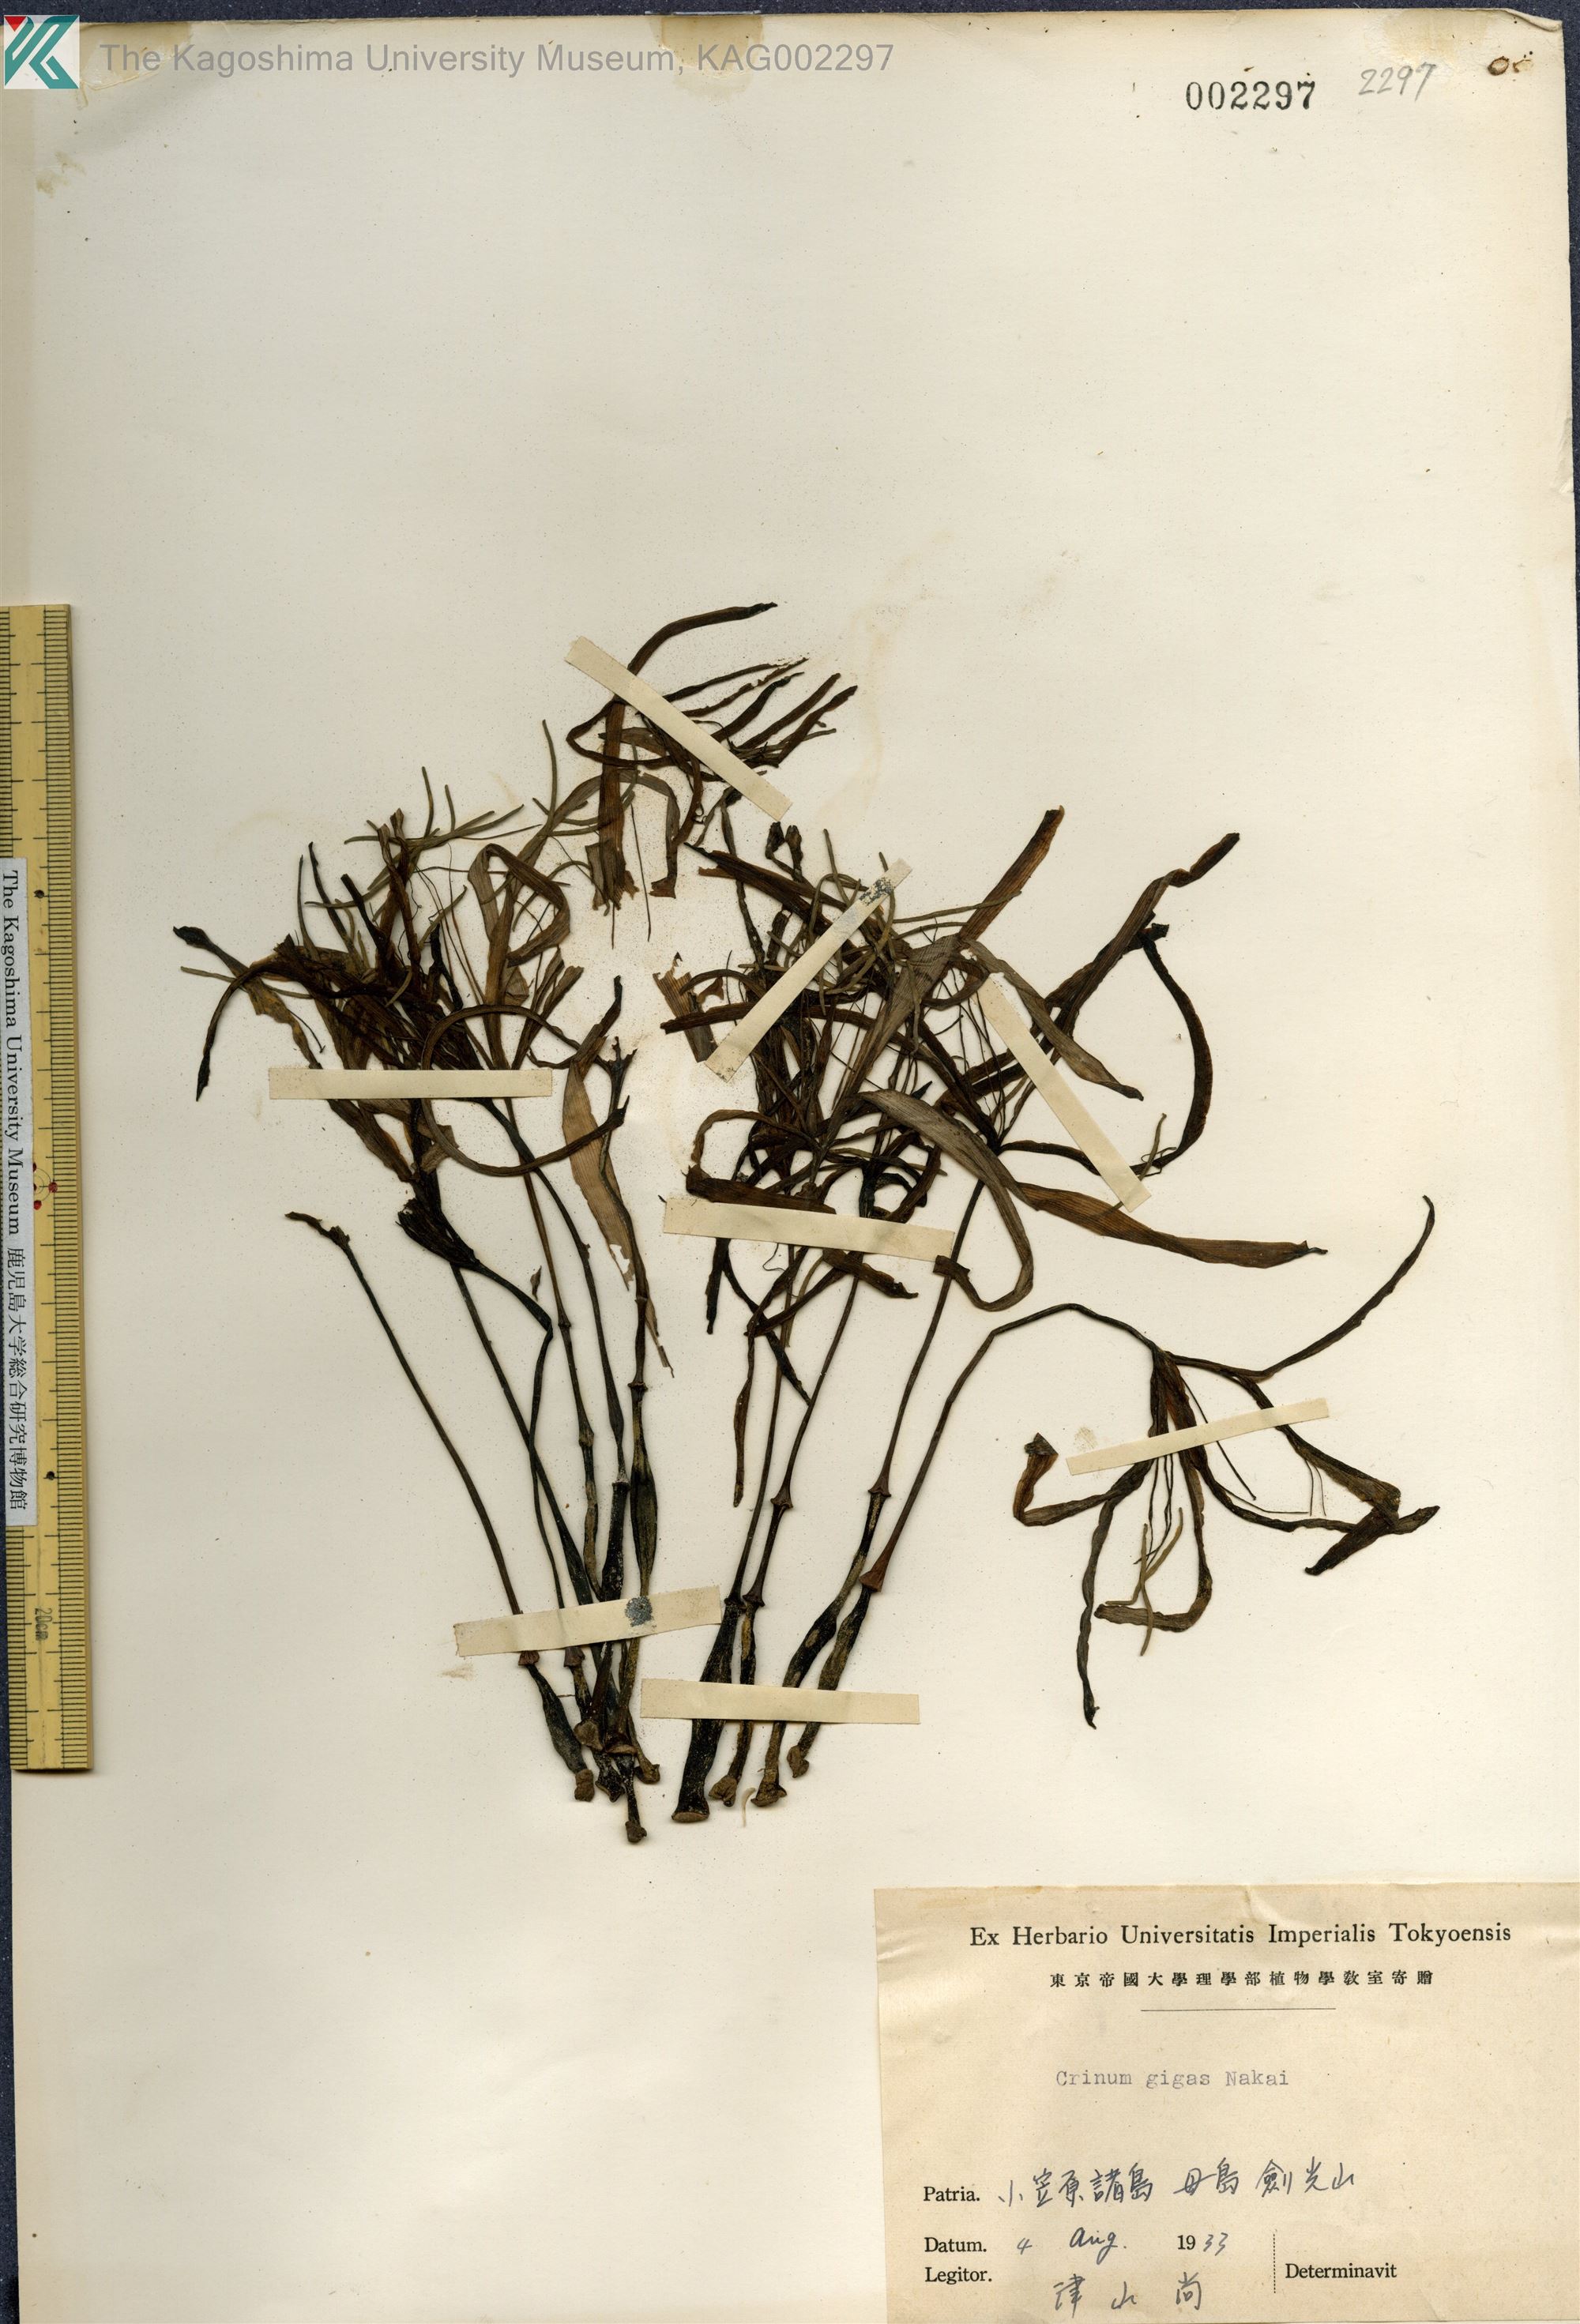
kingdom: Plantae
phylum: Tracheophyta
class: Liliopsida
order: Asparagales
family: Amaryllidaceae
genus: Crinum
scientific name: Crinum gigas
